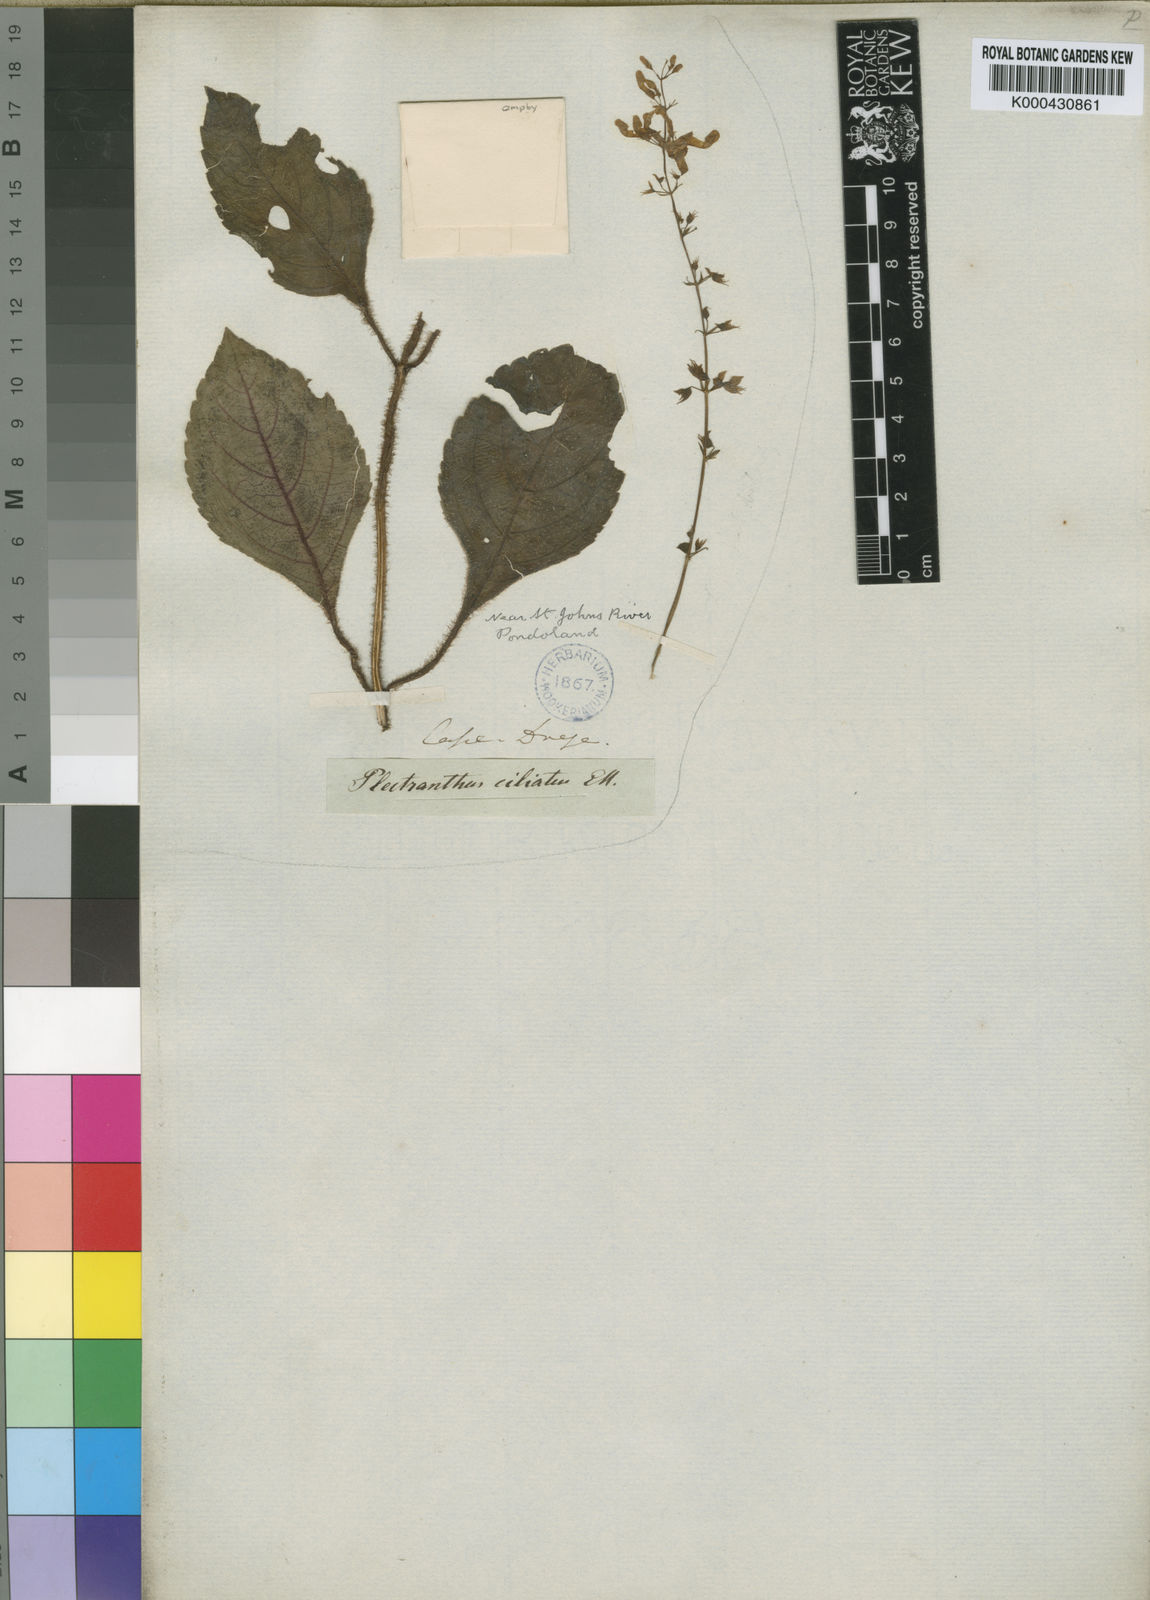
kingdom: Plantae
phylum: Tracheophyta
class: Magnoliopsida
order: Lamiales
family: Lamiaceae
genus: Plectranthus
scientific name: Plectranthus
